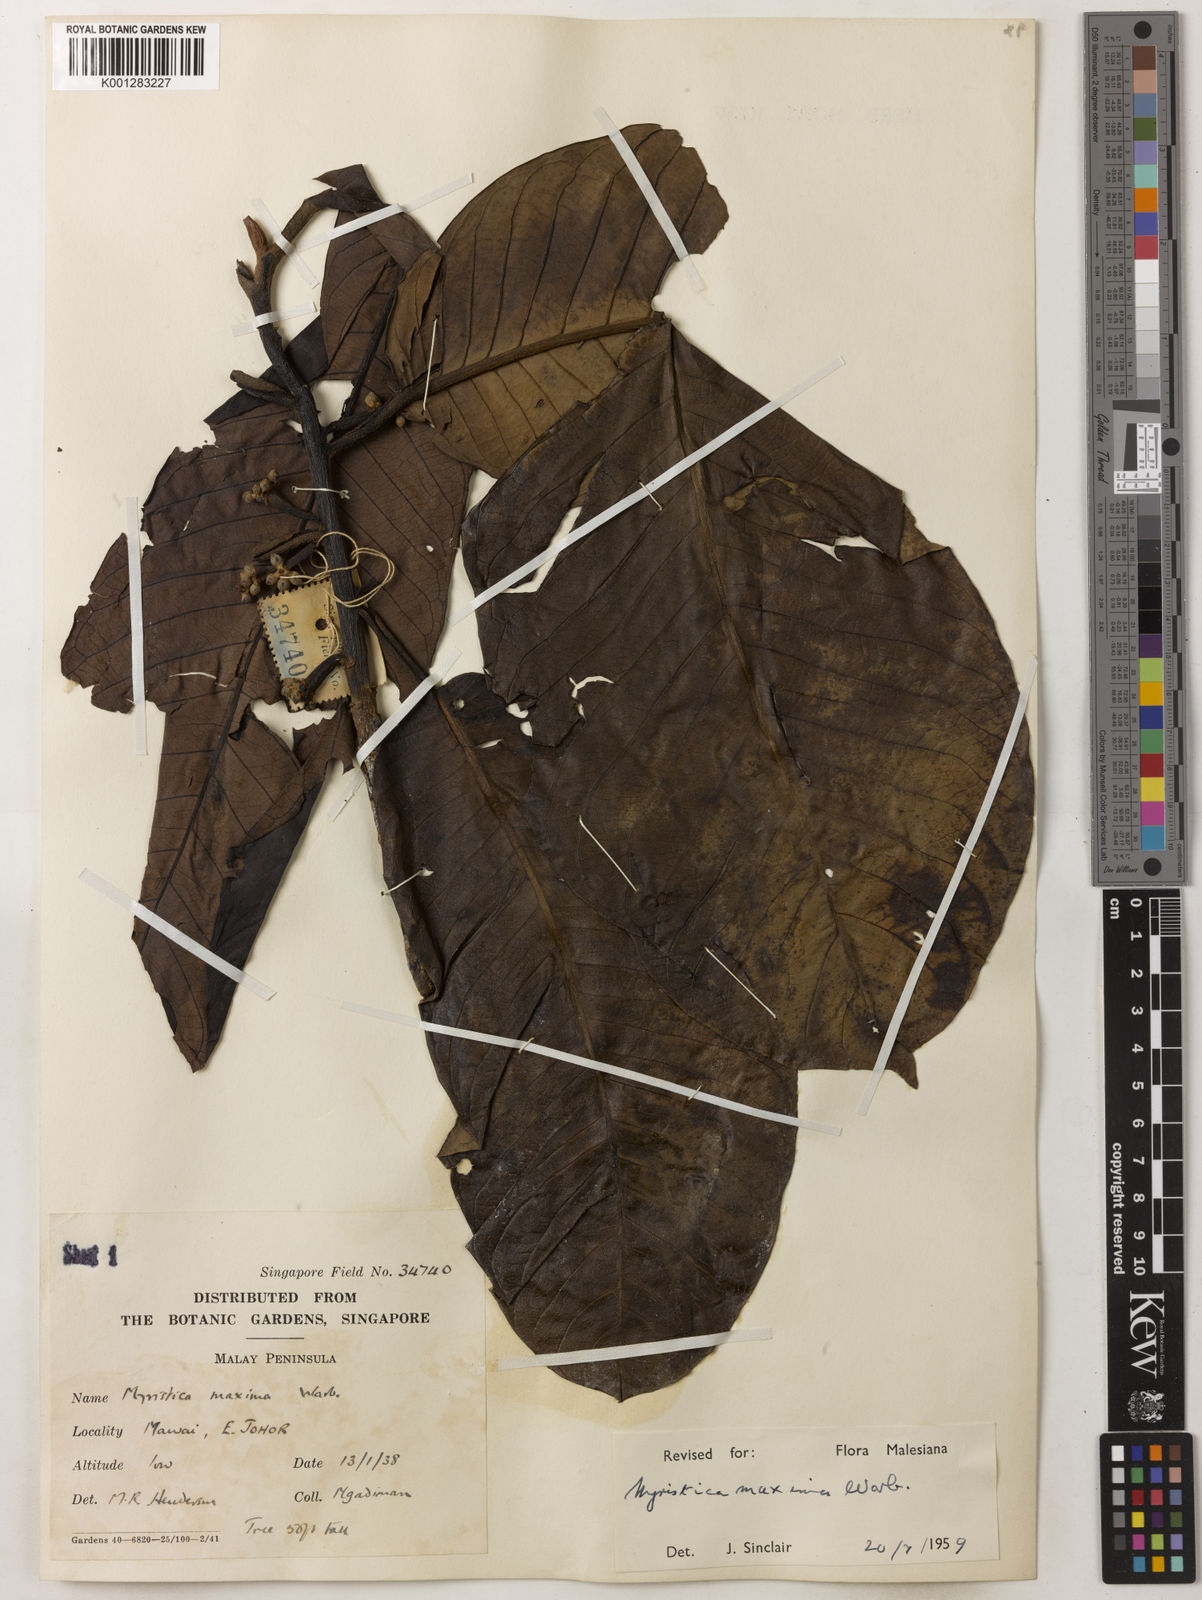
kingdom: Plantae
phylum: Tracheophyta
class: Magnoliopsida
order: Magnoliales
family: Myristicaceae
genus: Myristica
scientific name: Myristica maxima
